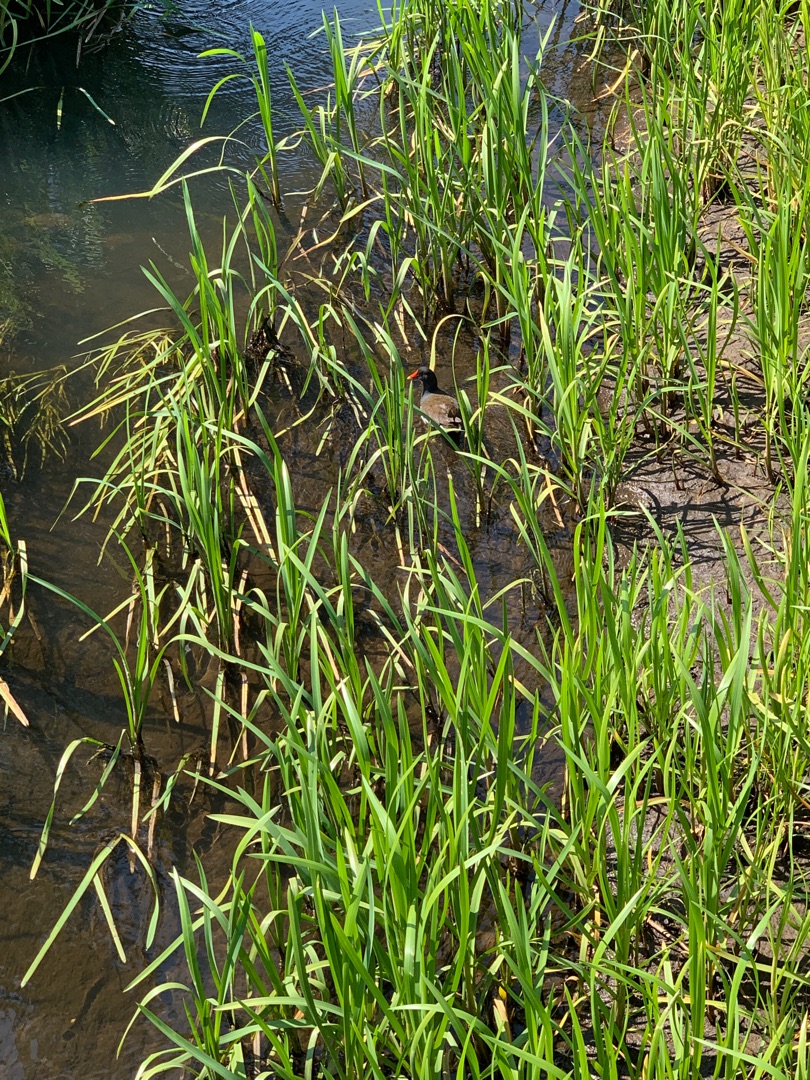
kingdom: Animalia
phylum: Chordata
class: Aves
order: Gruiformes
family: Rallidae
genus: Gallinula
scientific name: Gallinula chloropus
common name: Grønbenet rørhøne
